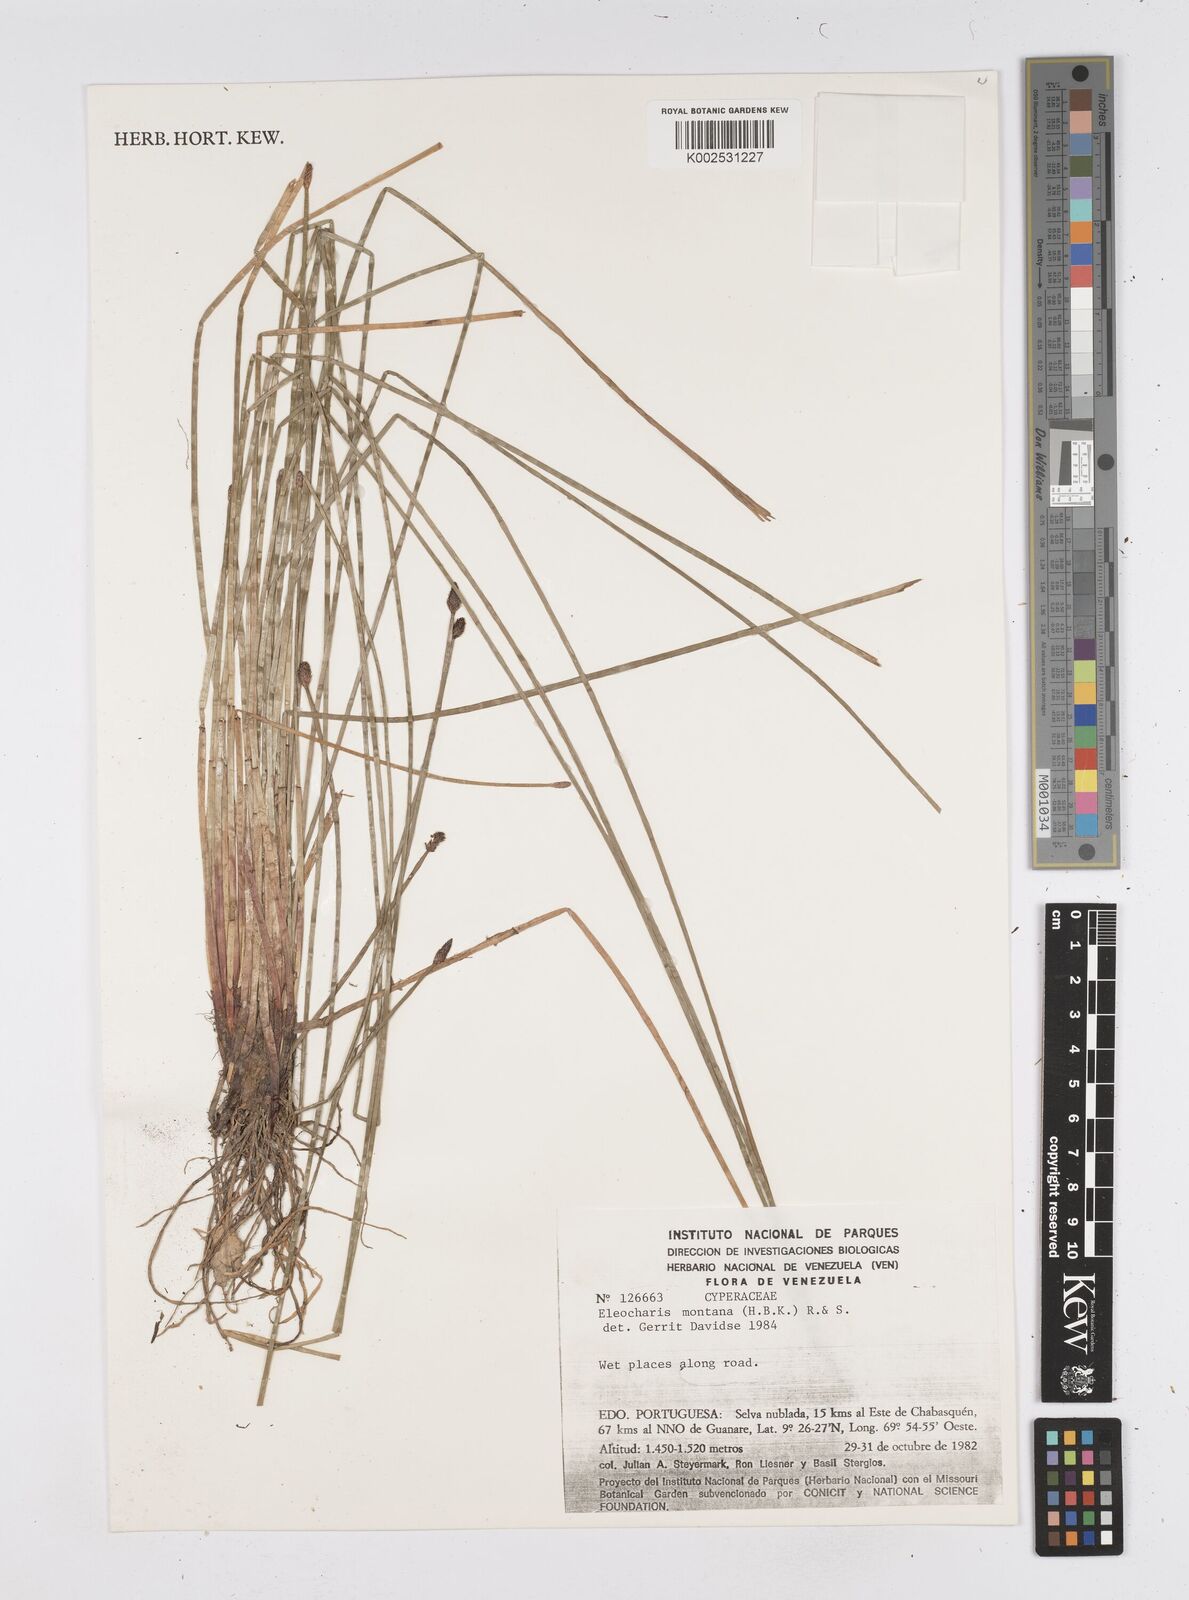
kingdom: Plantae
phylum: Tracheophyta
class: Liliopsida
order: Poales
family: Cyperaceae
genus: Eleocharis
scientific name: Eleocharis montana
